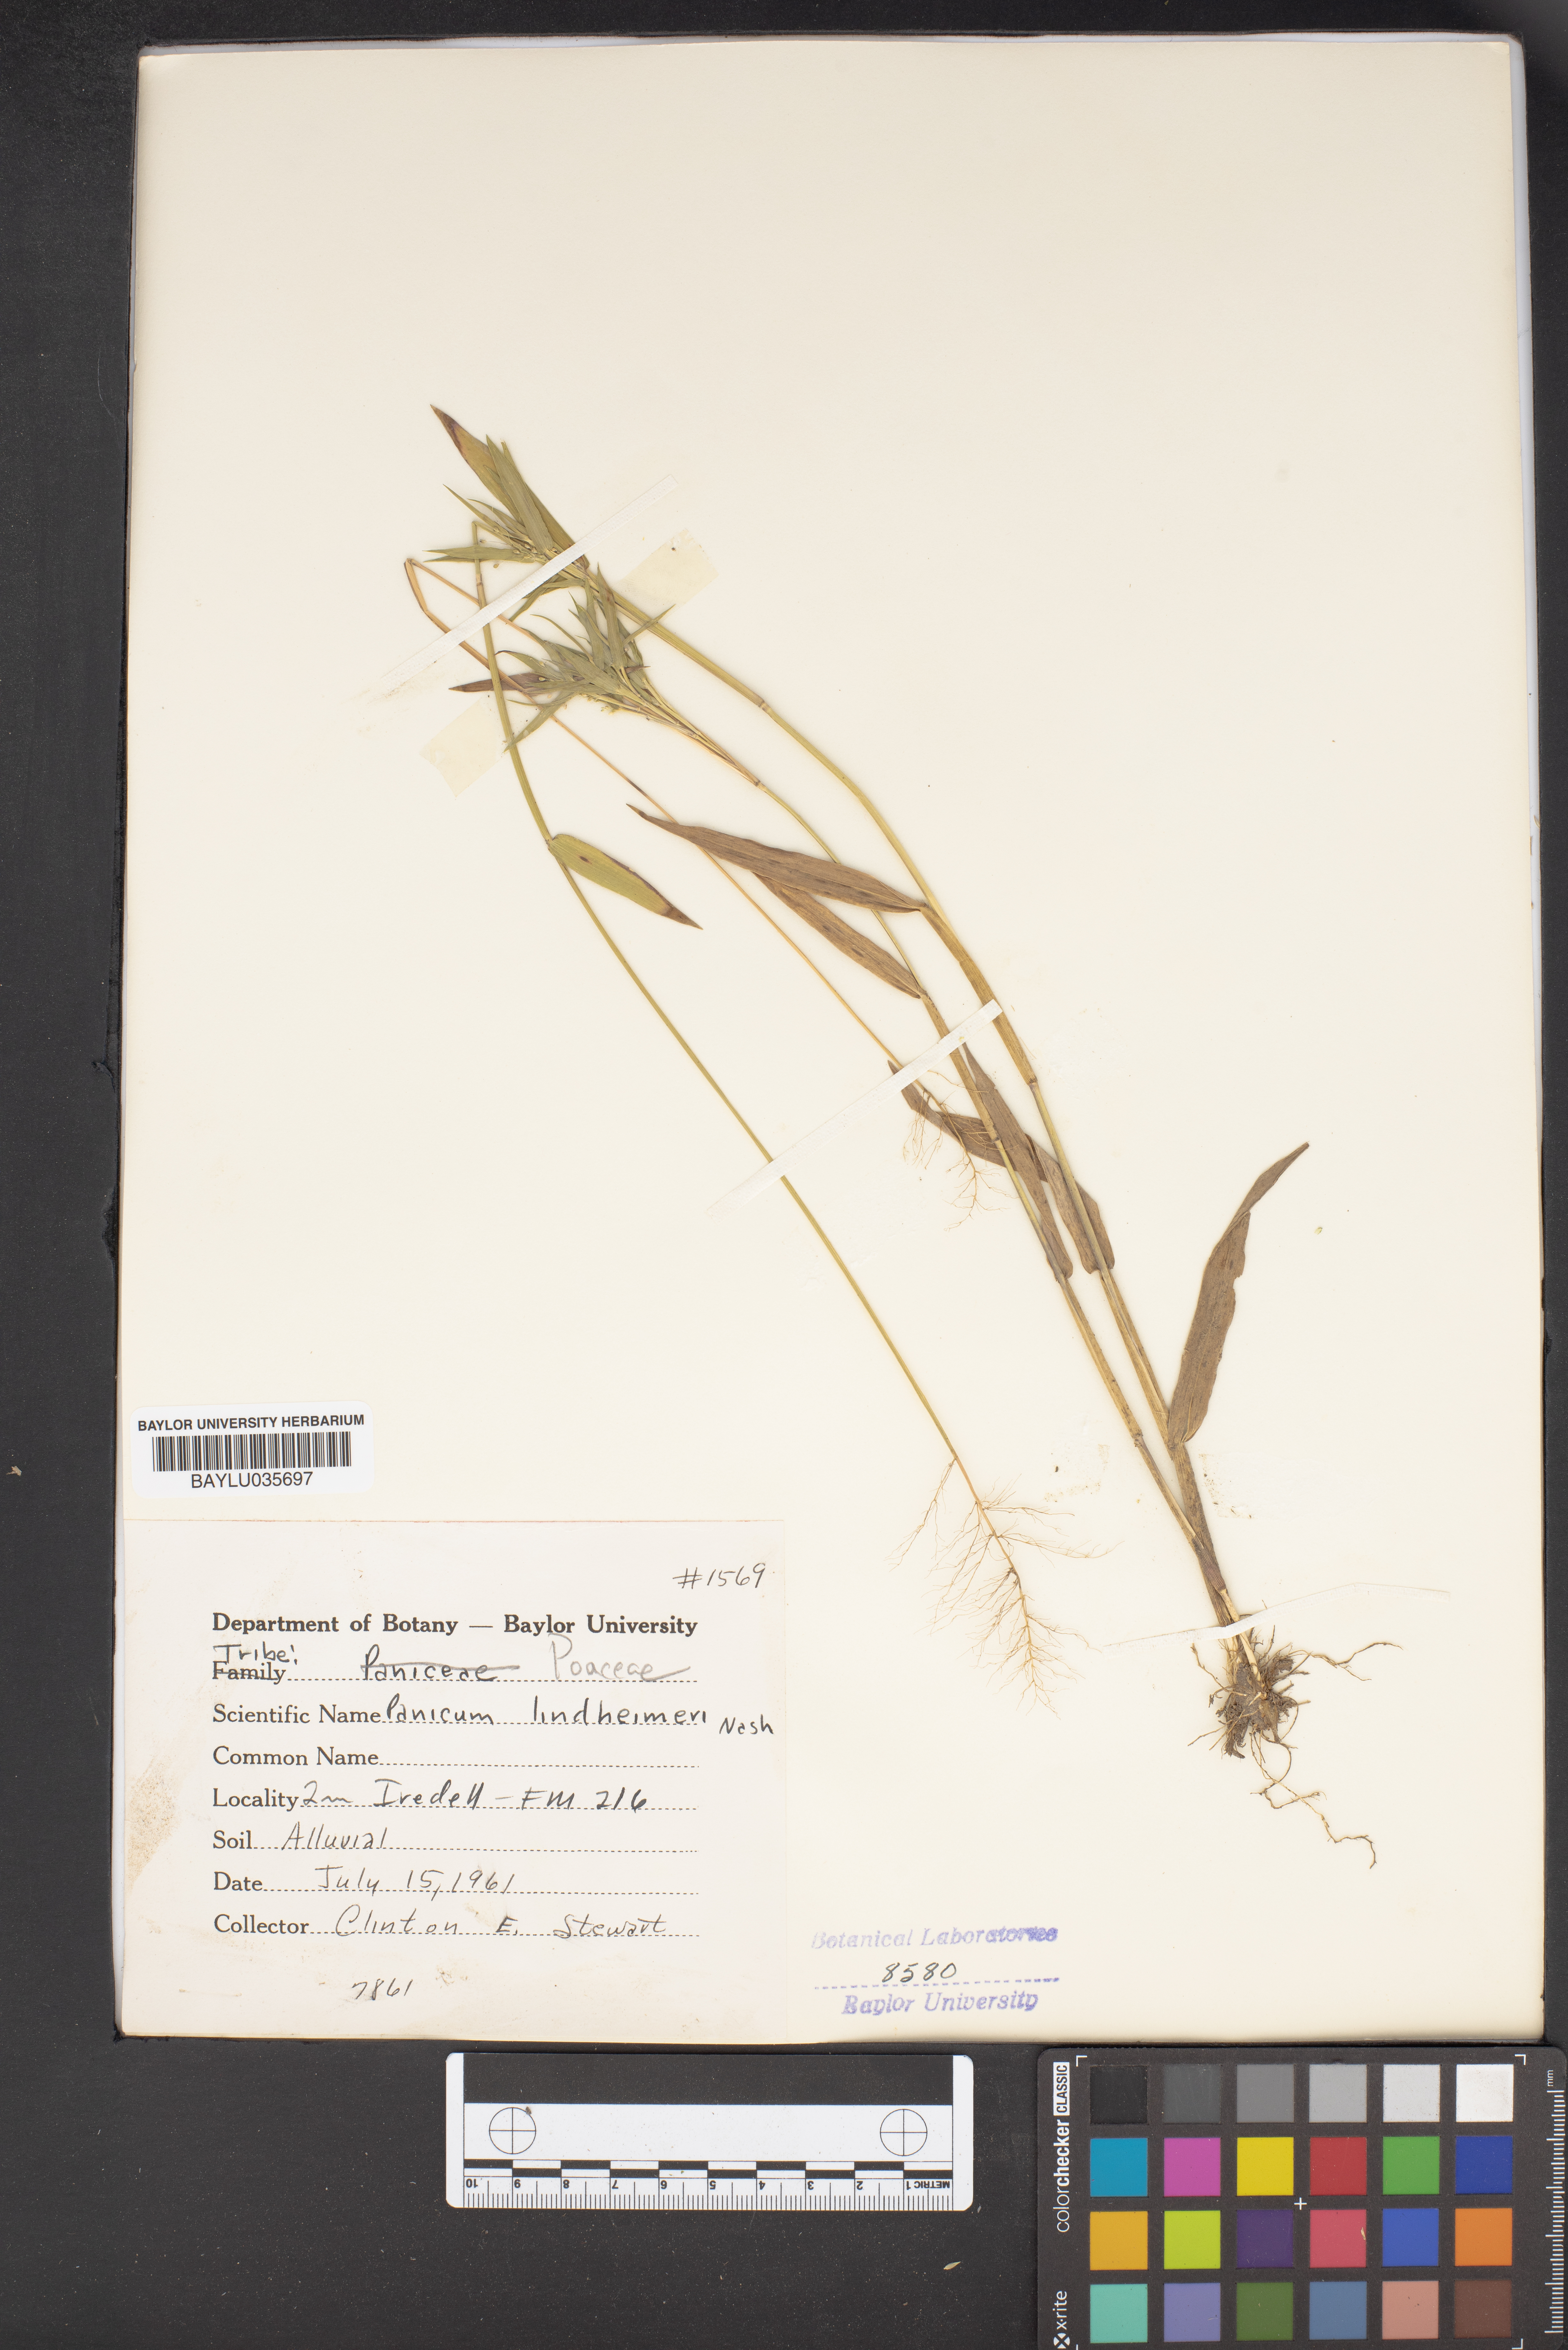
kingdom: Plantae
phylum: Tracheophyta
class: Liliopsida
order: Poales
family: Poaceae
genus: Dichanthelium
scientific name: Dichanthelium lindheimeri
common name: Lindheimer's panicgrass
